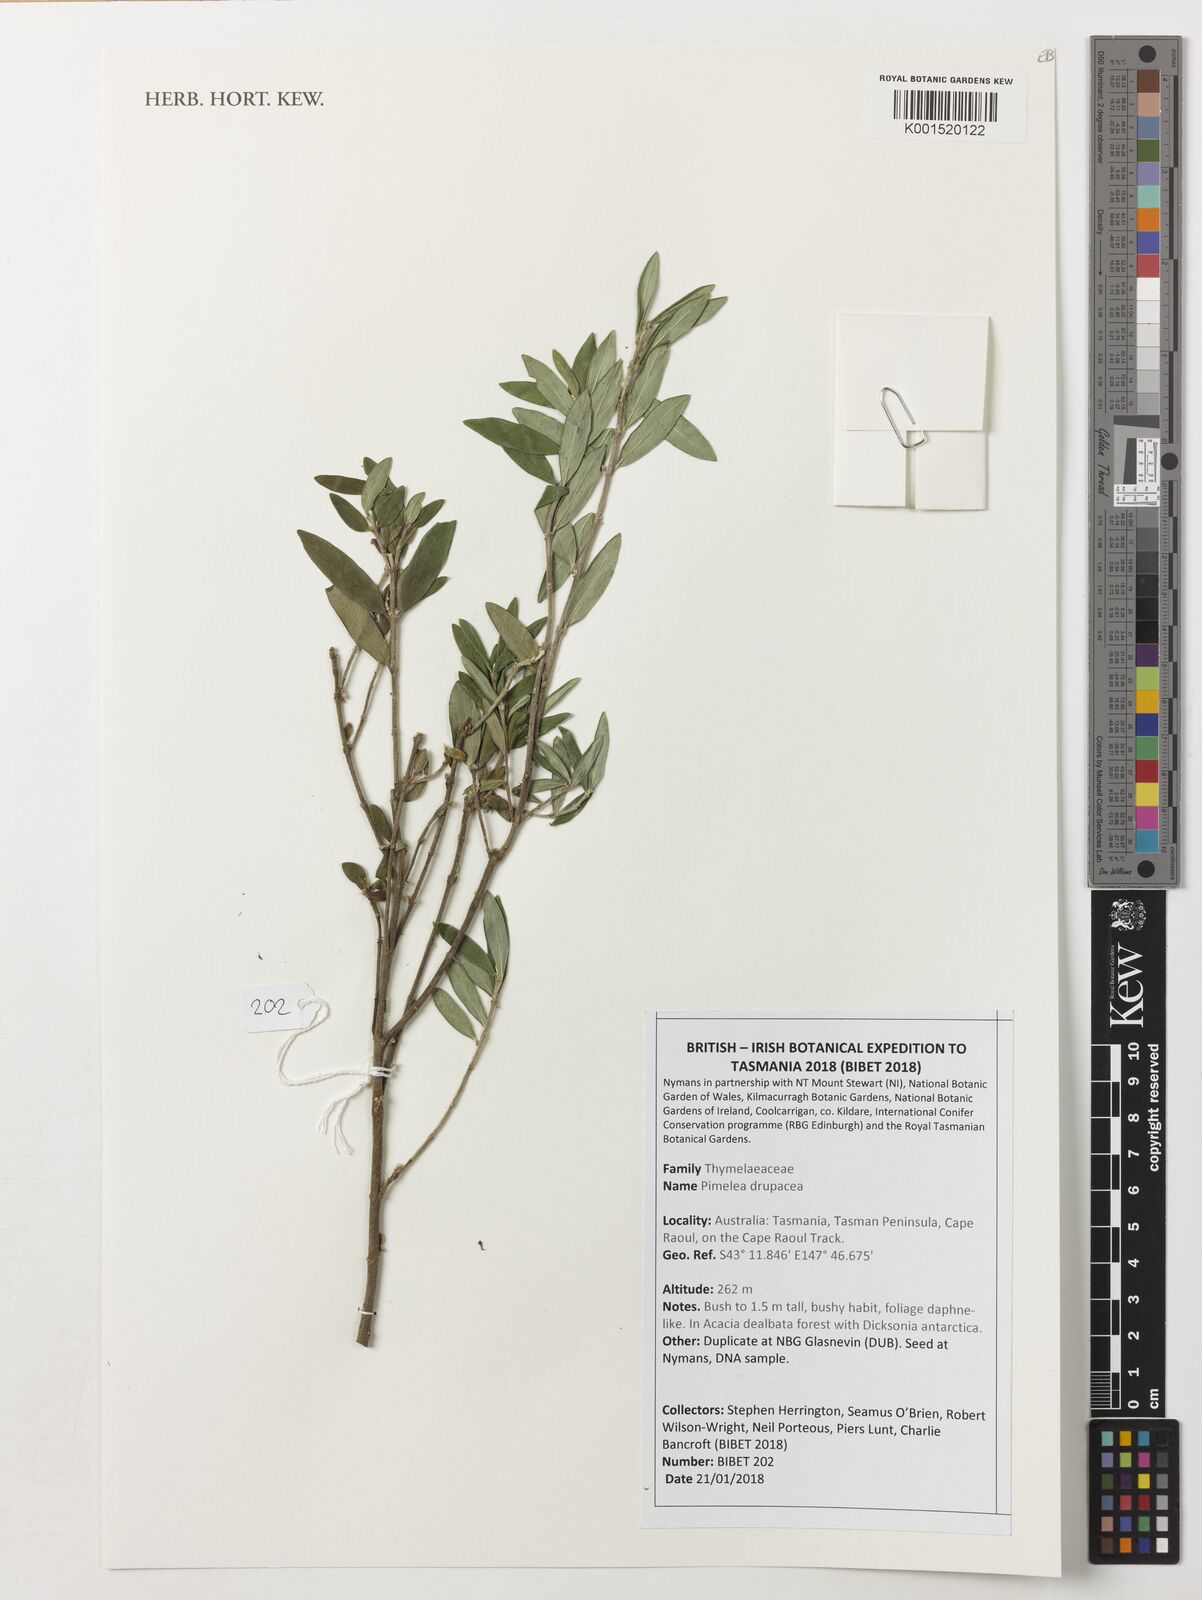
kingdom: Plantae
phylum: Tracheophyta
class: Magnoliopsida
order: Malvales
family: Thymelaeaceae
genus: Pimelea
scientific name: Pimelea drupacea
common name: Cherry riceflower
